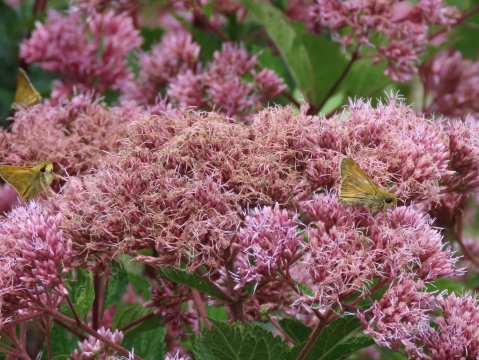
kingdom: Animalia
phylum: Arthropoda
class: Insecta
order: Lepidoptera
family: Hesperiidae
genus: Atalopedes
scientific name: Atalopedes campestris
